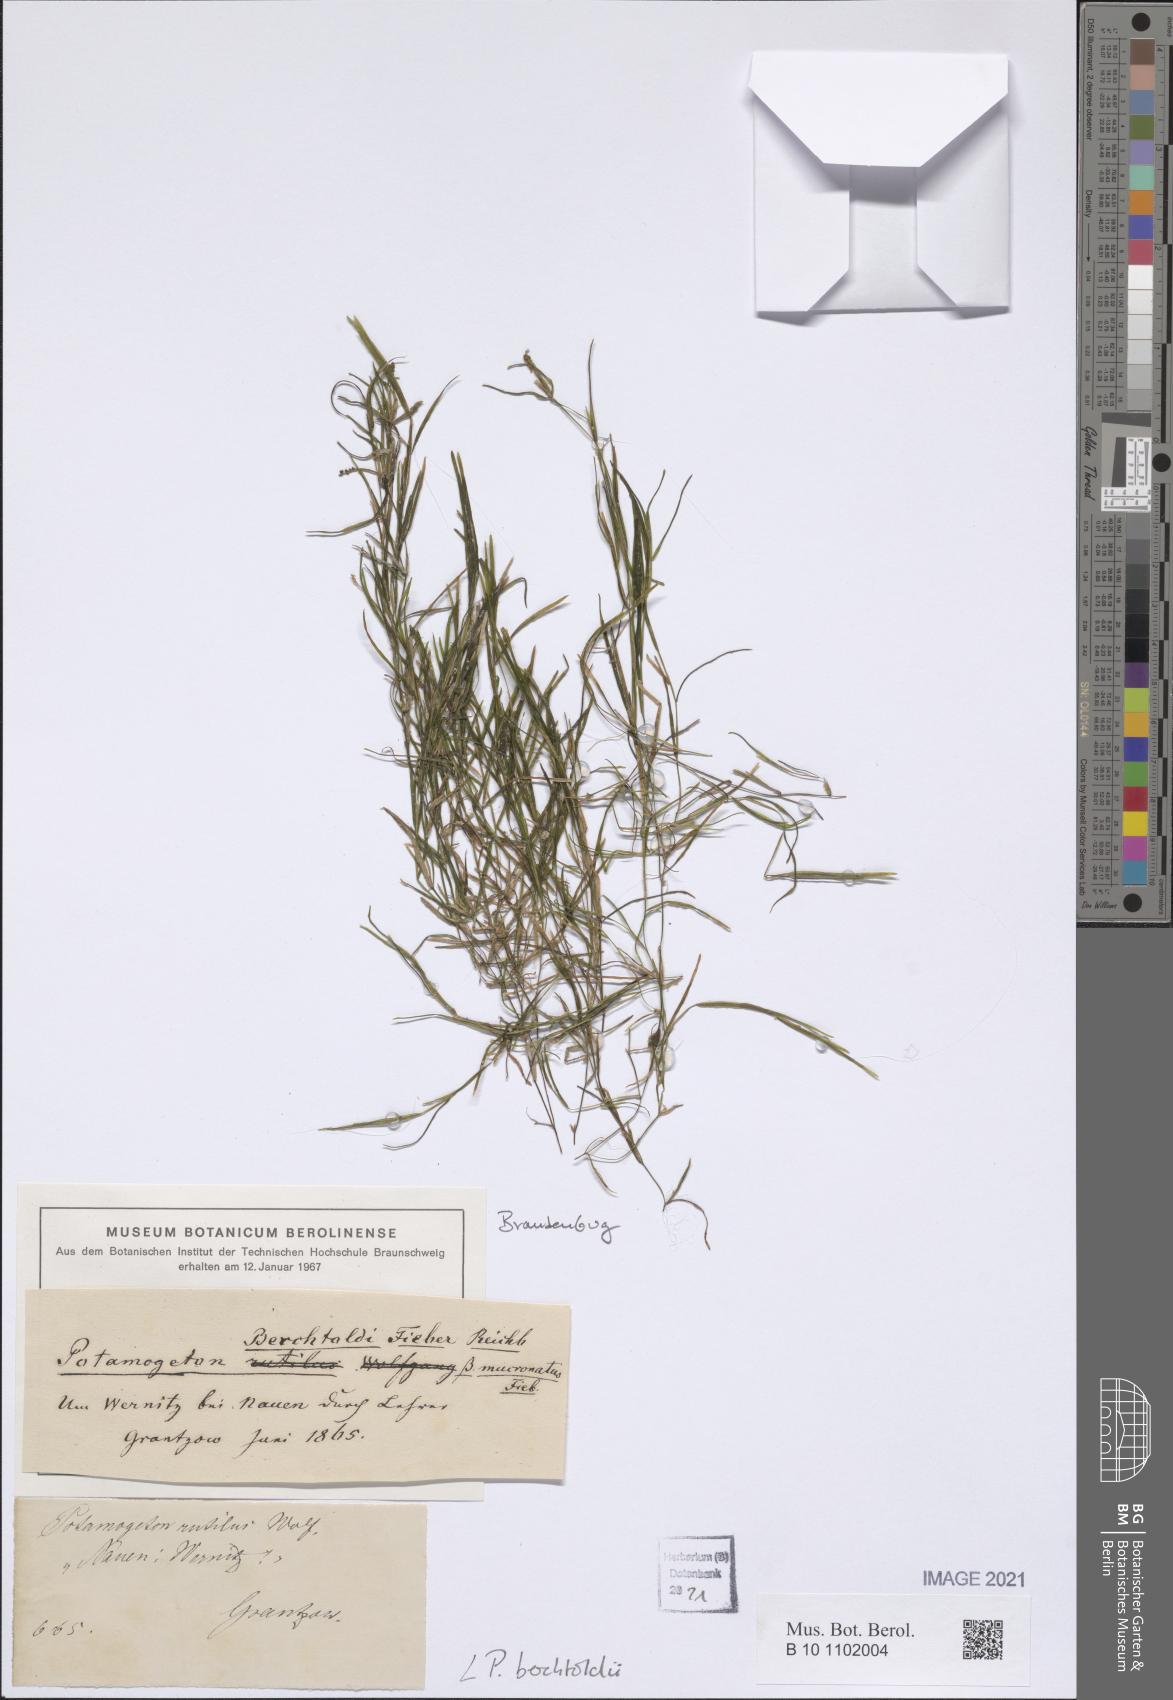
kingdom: Plantae
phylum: Tracheophyta
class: Liliopsida
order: Alismatales
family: Potamogetonaceae
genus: Potamogeton
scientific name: Potamogeton berchtoldii
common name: Small pondweed
